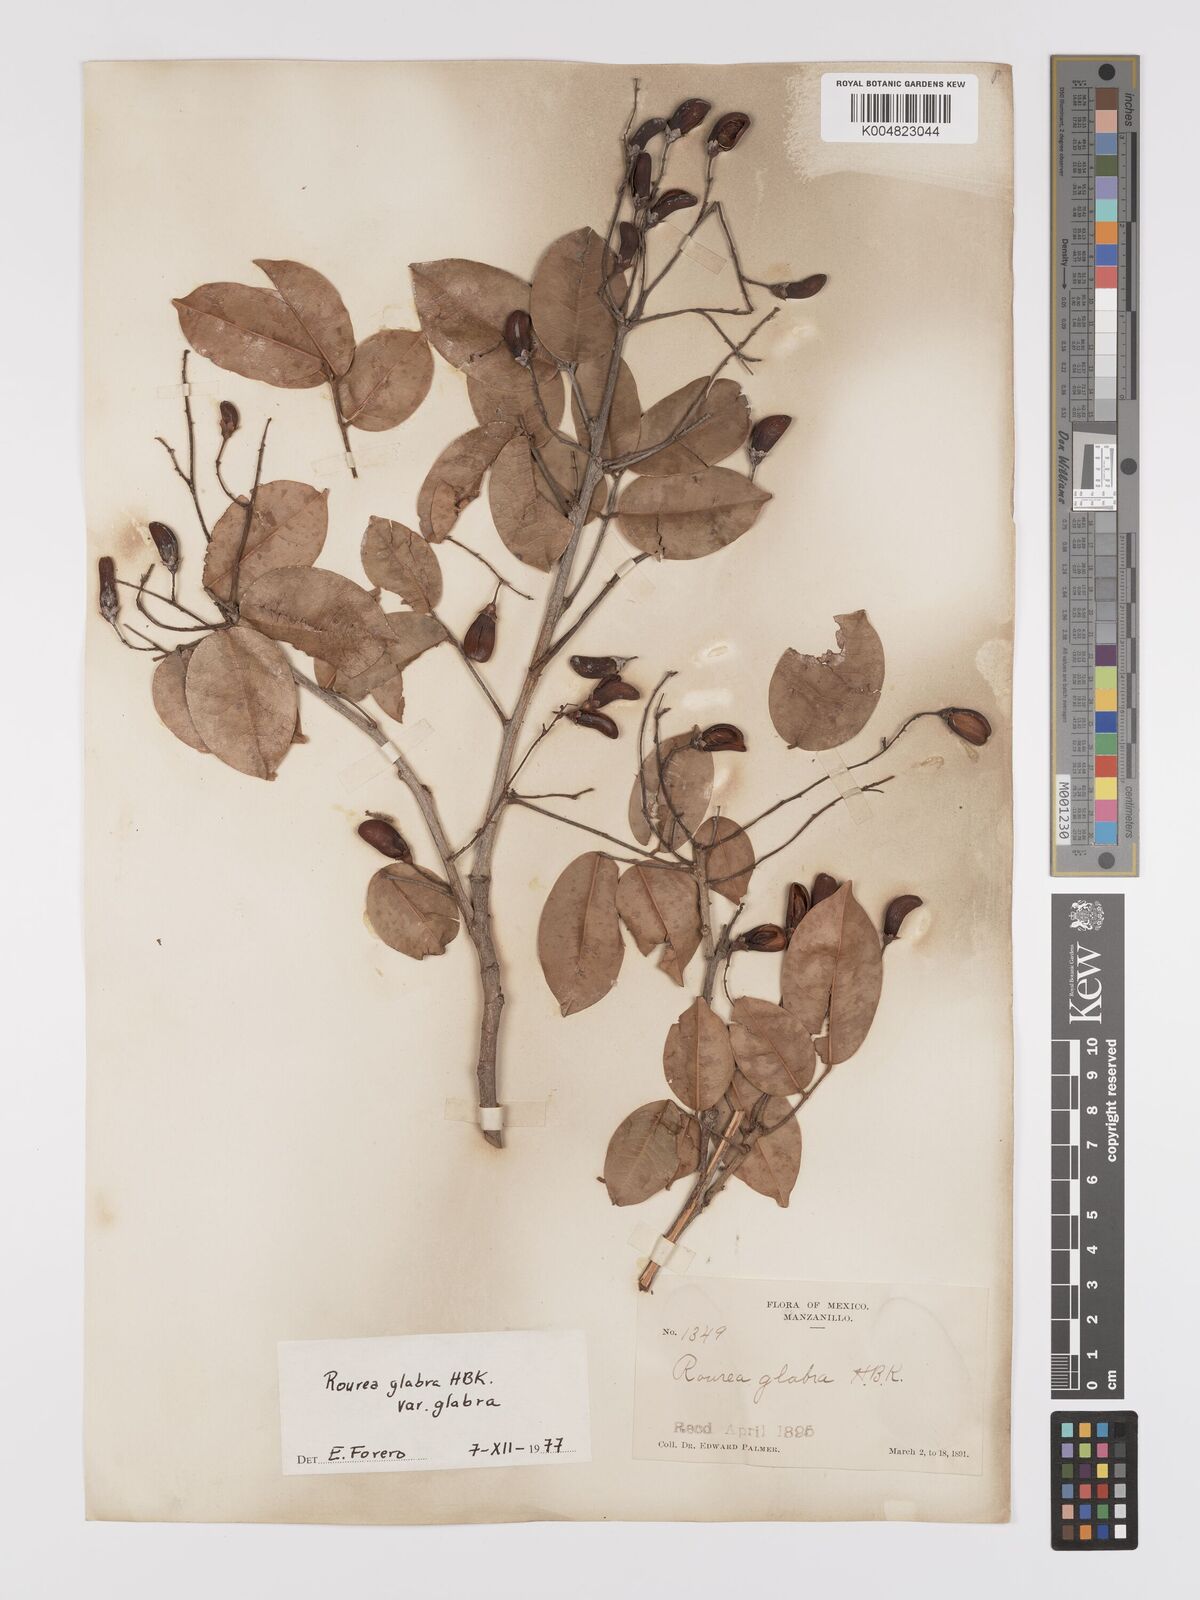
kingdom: Plantae
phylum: Tracheophyta
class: Magnoliopsida
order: Oxalidales
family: Connaraceae
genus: Rourea
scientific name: Rourea glabra
